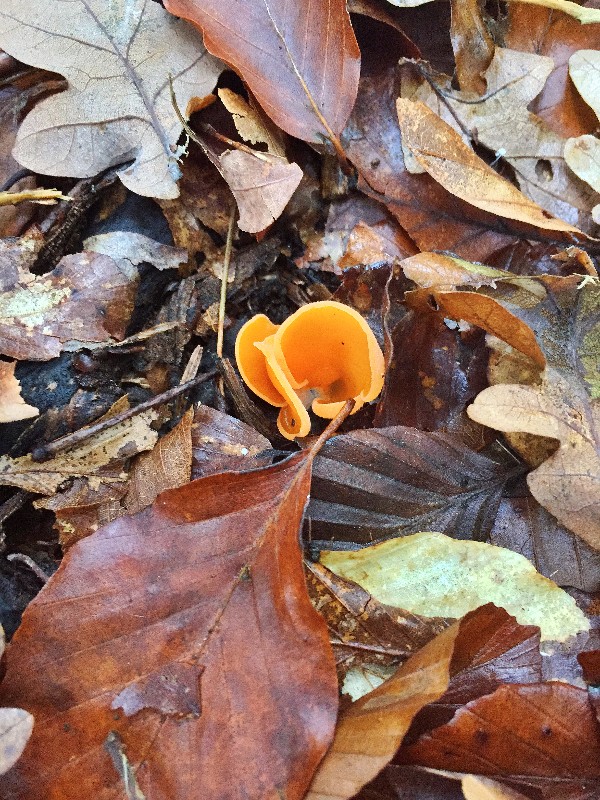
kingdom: Fungi
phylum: Ascomycota
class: Pezizomycetes
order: Pezizales
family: Pyronemataceae
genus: Aleuria
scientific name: Aleuria aurantia
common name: almindelig orangebæger
